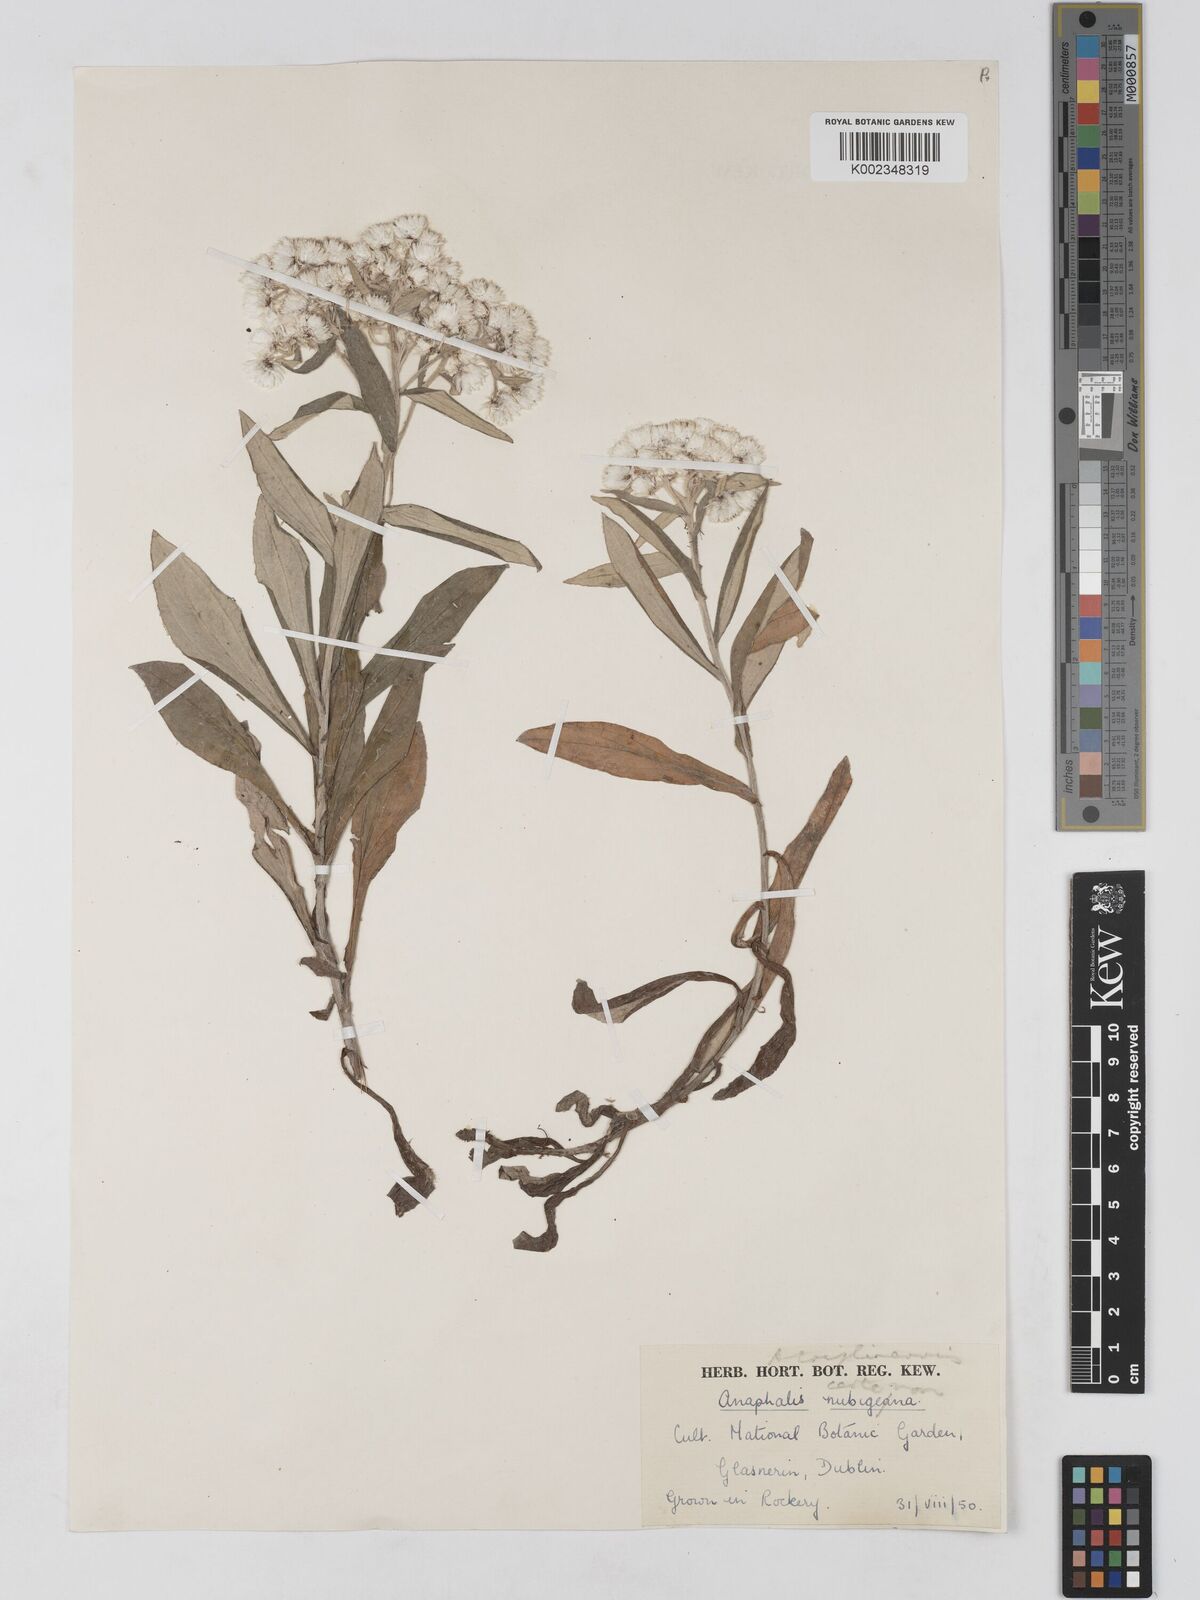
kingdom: Plantae
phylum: Tracheophyta
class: Magnoliopsida
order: Asterales
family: Asteraceae
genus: Anaphalis
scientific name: Anaphalis triplinervis
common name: Pearly everlasting
